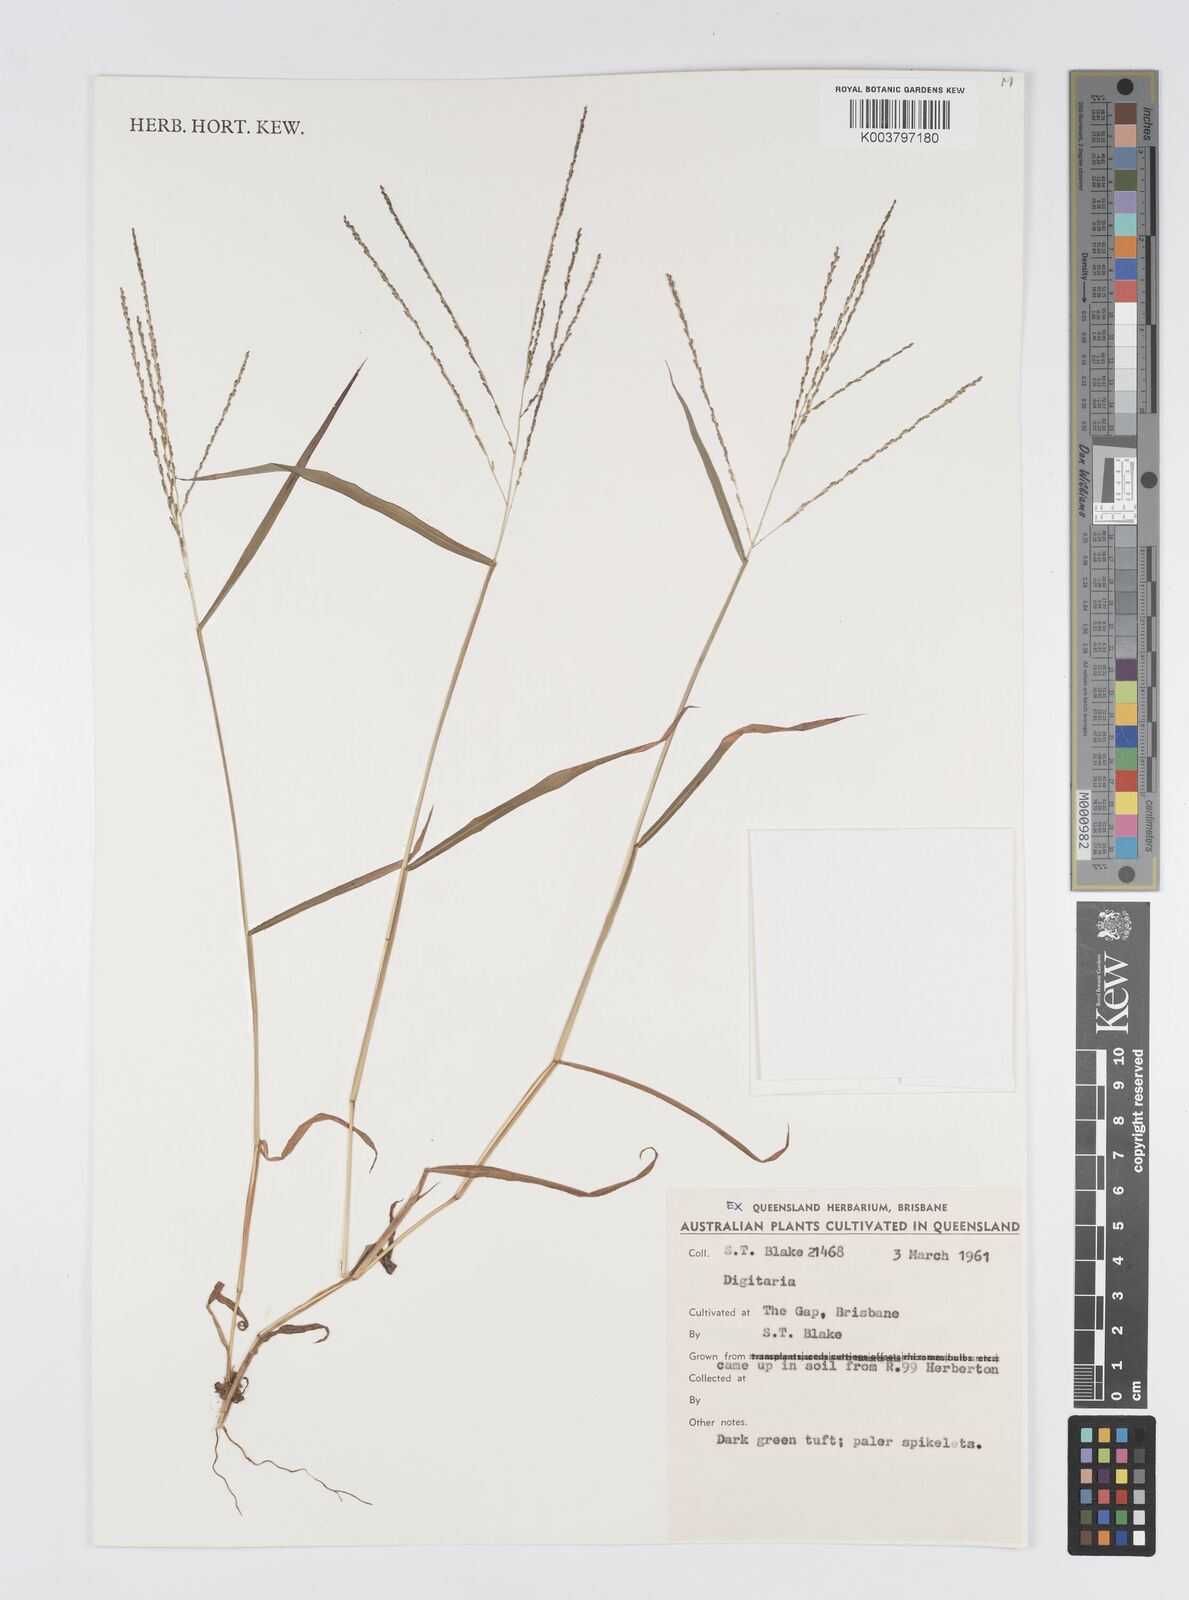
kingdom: Plantae
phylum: Tracheophyta
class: Liliopsida
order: Poales
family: Poaceae
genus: Digitaria
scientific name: Digitaria spec
